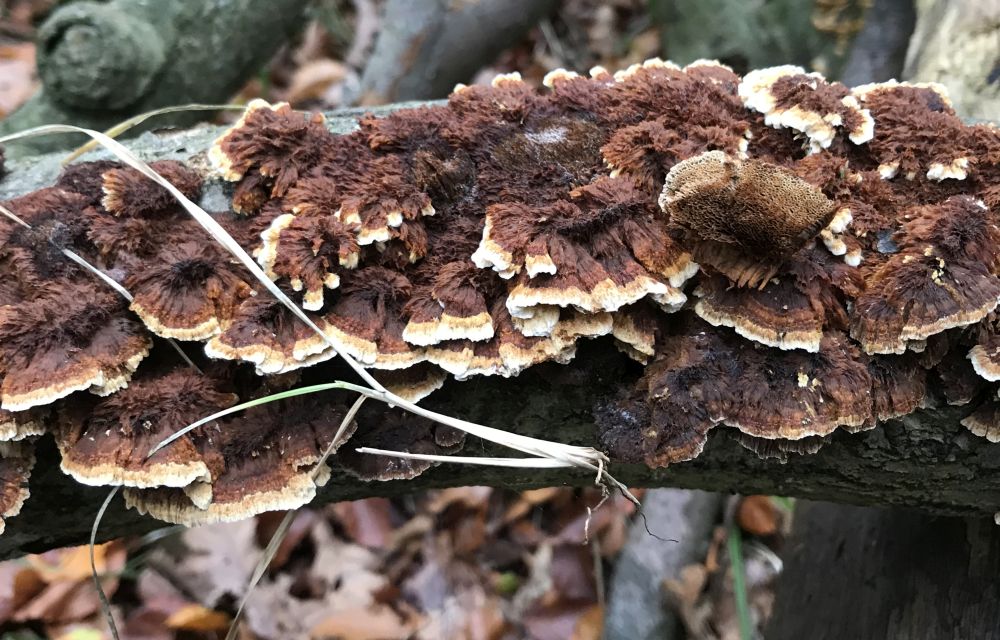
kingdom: Fungi
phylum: Basidiomycota
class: Agaricomycetes
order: Hymenochaetales
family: Hymenochaetaceae
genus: Mensularia
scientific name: Mensularia nodulosa
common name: bøge-spejlporesvamp
